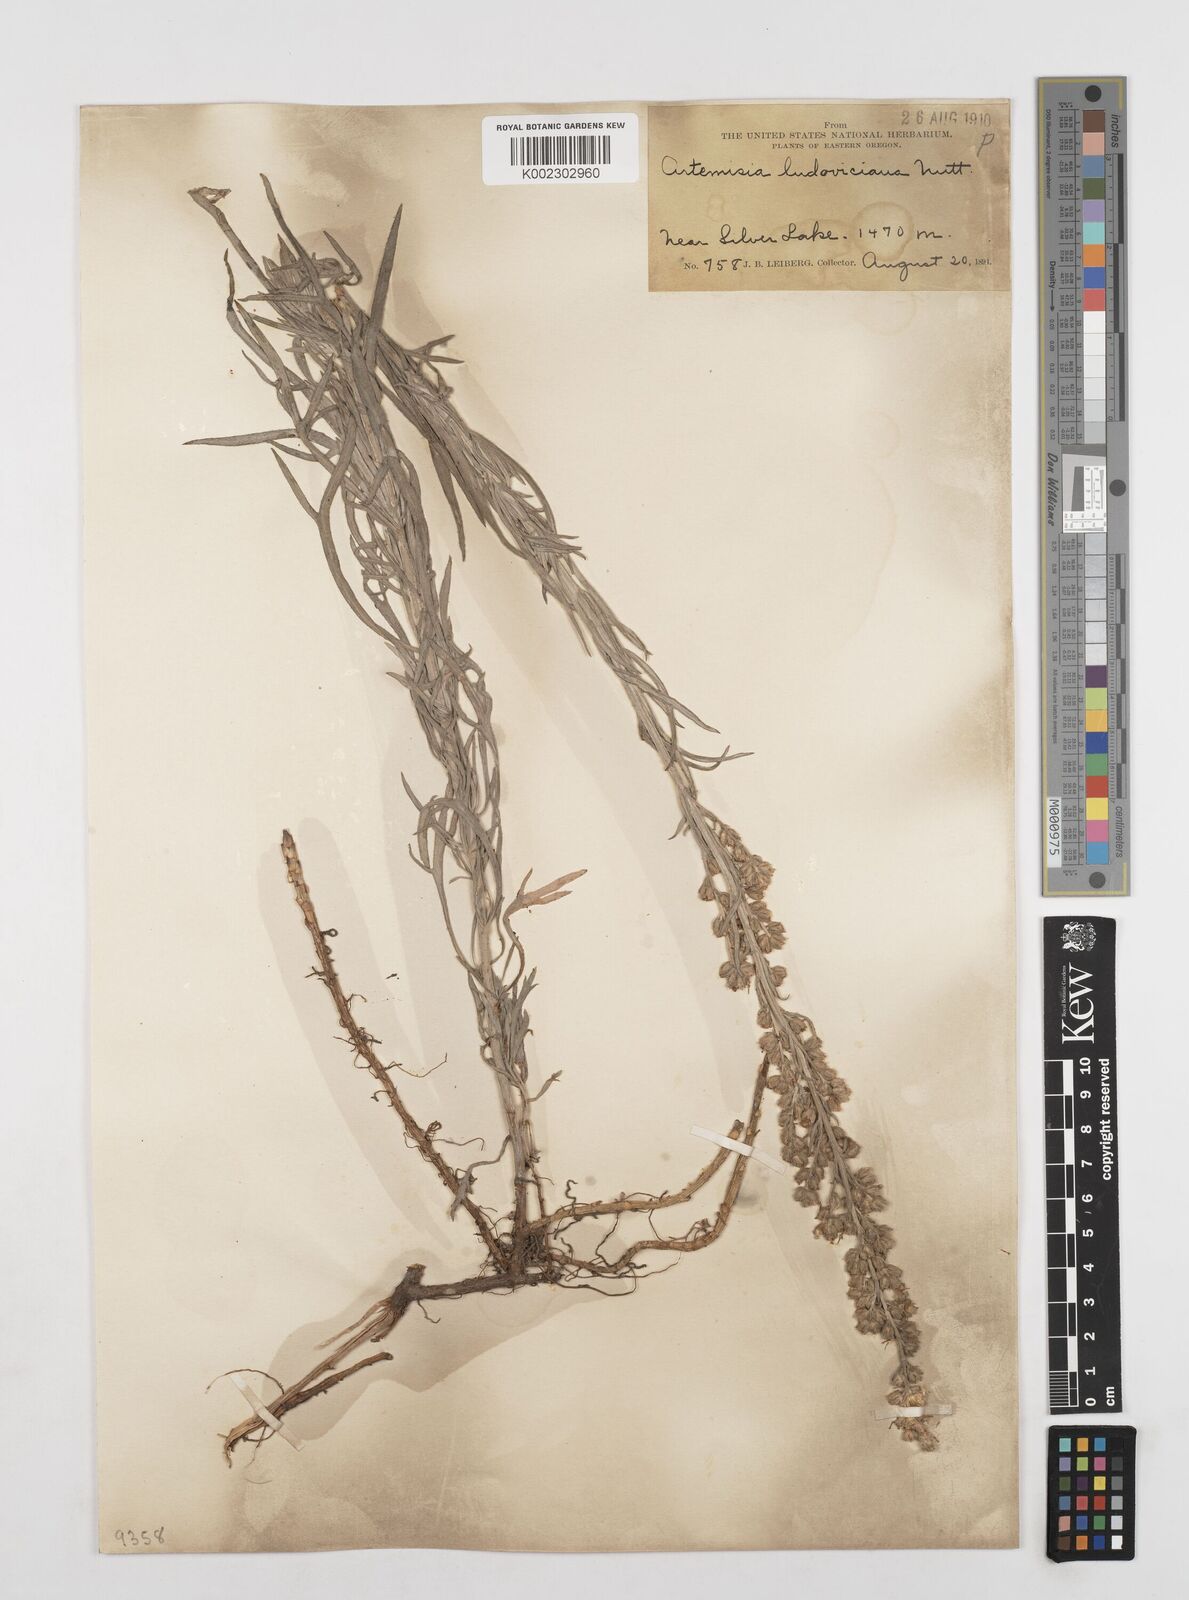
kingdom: Plantae
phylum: Tracheophyta
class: Magnoliopsida
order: Asterales
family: Asteraceae
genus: Artemisia
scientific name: Artemisia longifolia
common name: Long-leaved mugwort
